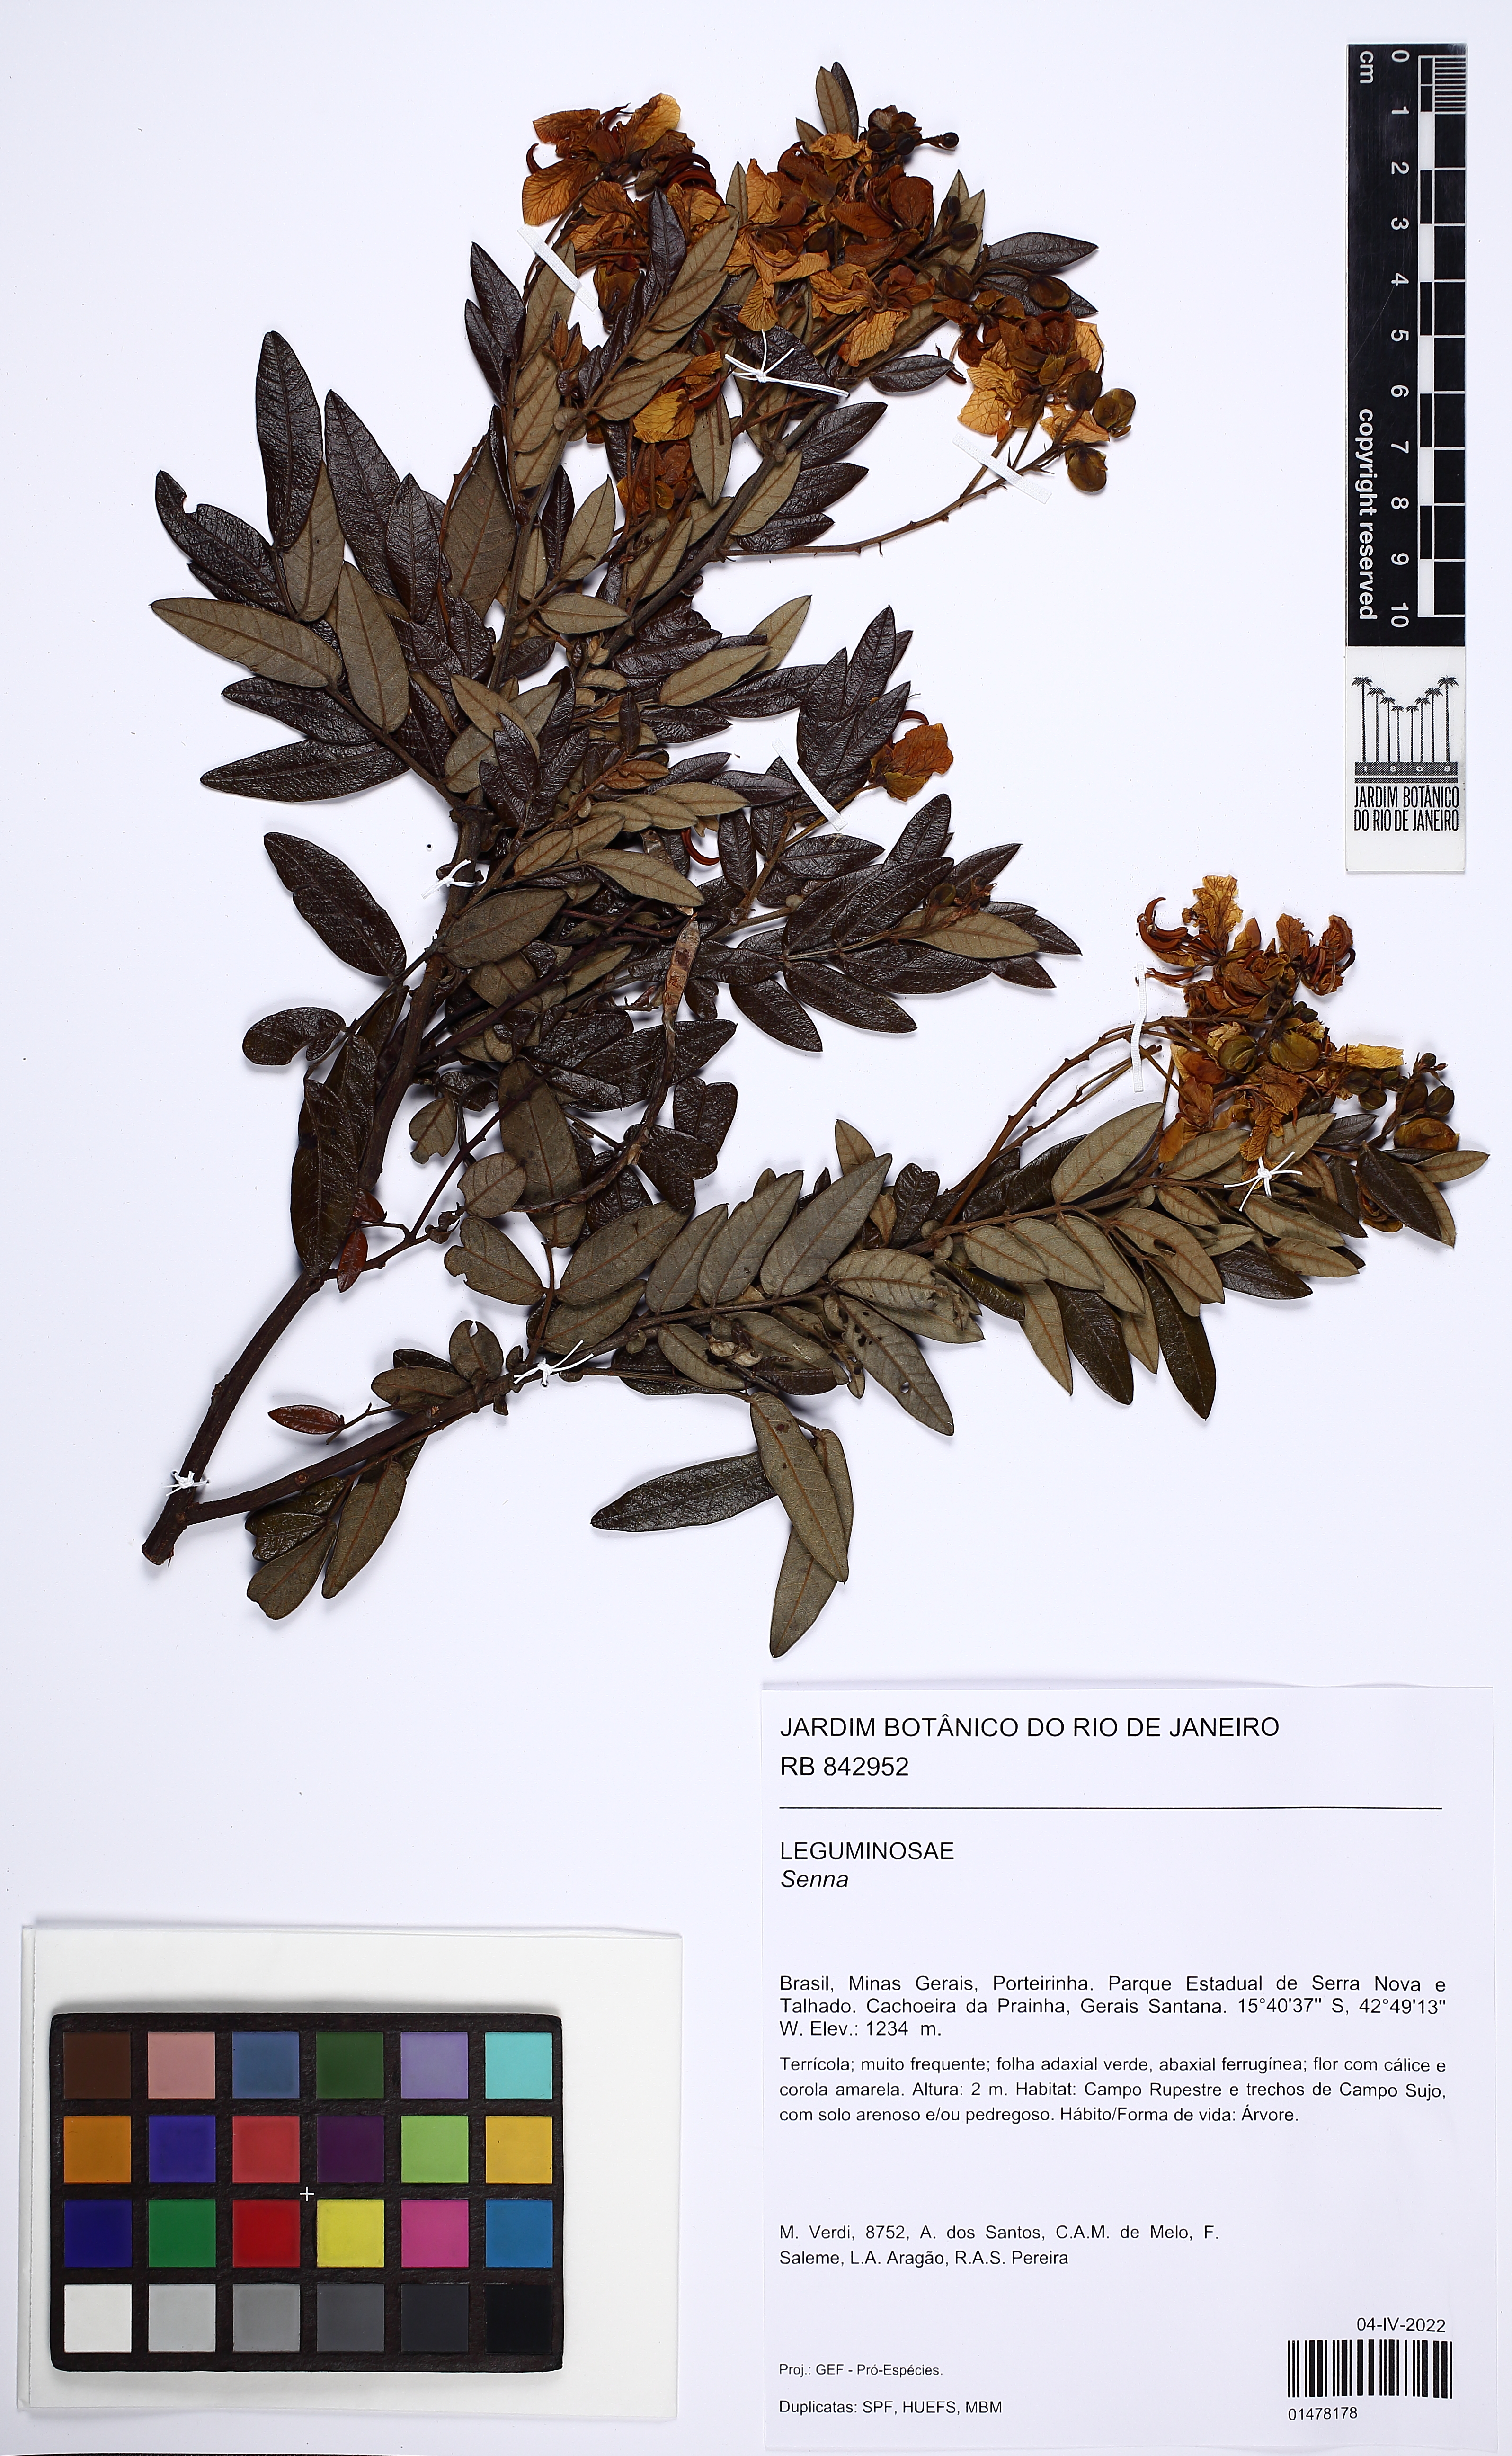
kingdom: Plantae
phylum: Tracheophyta
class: Magnoliopsida
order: Fabales
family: Fabaceae
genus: Senna
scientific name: Senna
